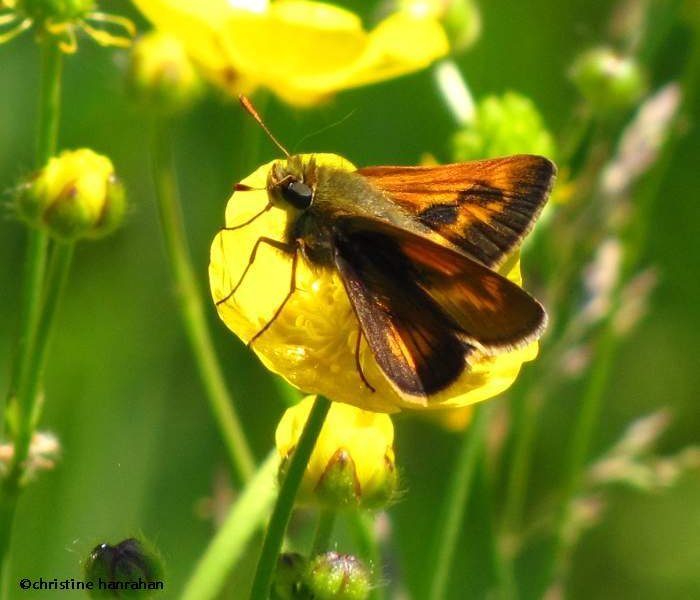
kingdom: Animalia
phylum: Arthropoda
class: Insecta
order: Lepidoptera
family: Hesperiidae
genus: Polites
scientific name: Polites
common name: Long Dash Skipper
